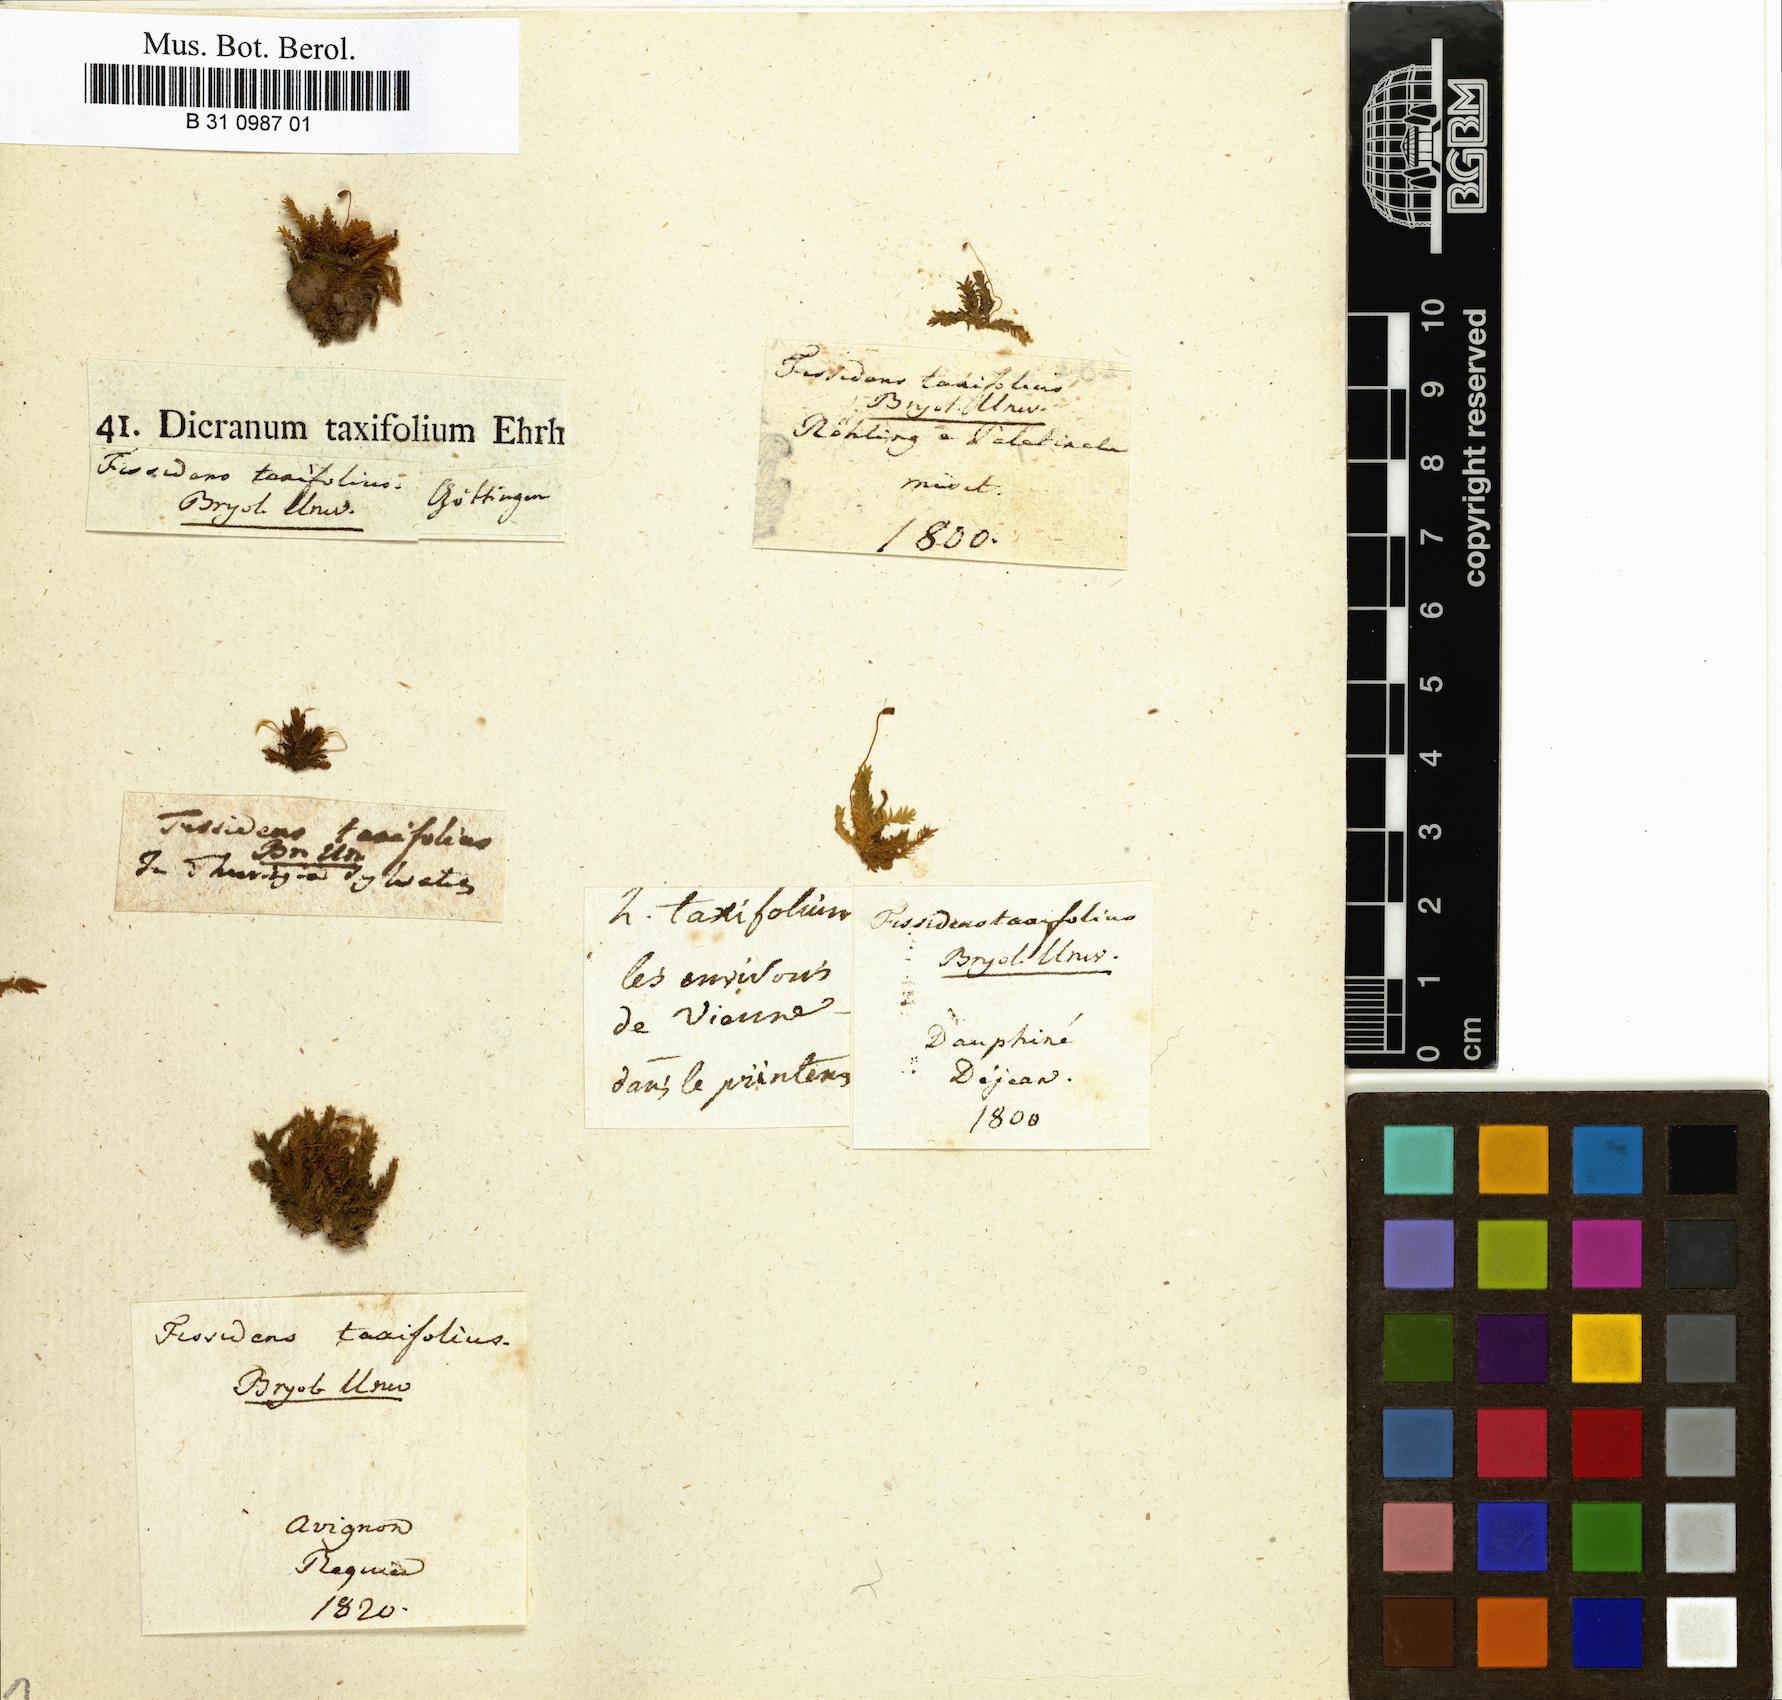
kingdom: Plantae
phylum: Bryophyta
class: Bryopsida
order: Dicranales
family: Fissidentaceae
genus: Fissidens
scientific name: Fissidens taxifolius
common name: Yew-leaved pocket moss
